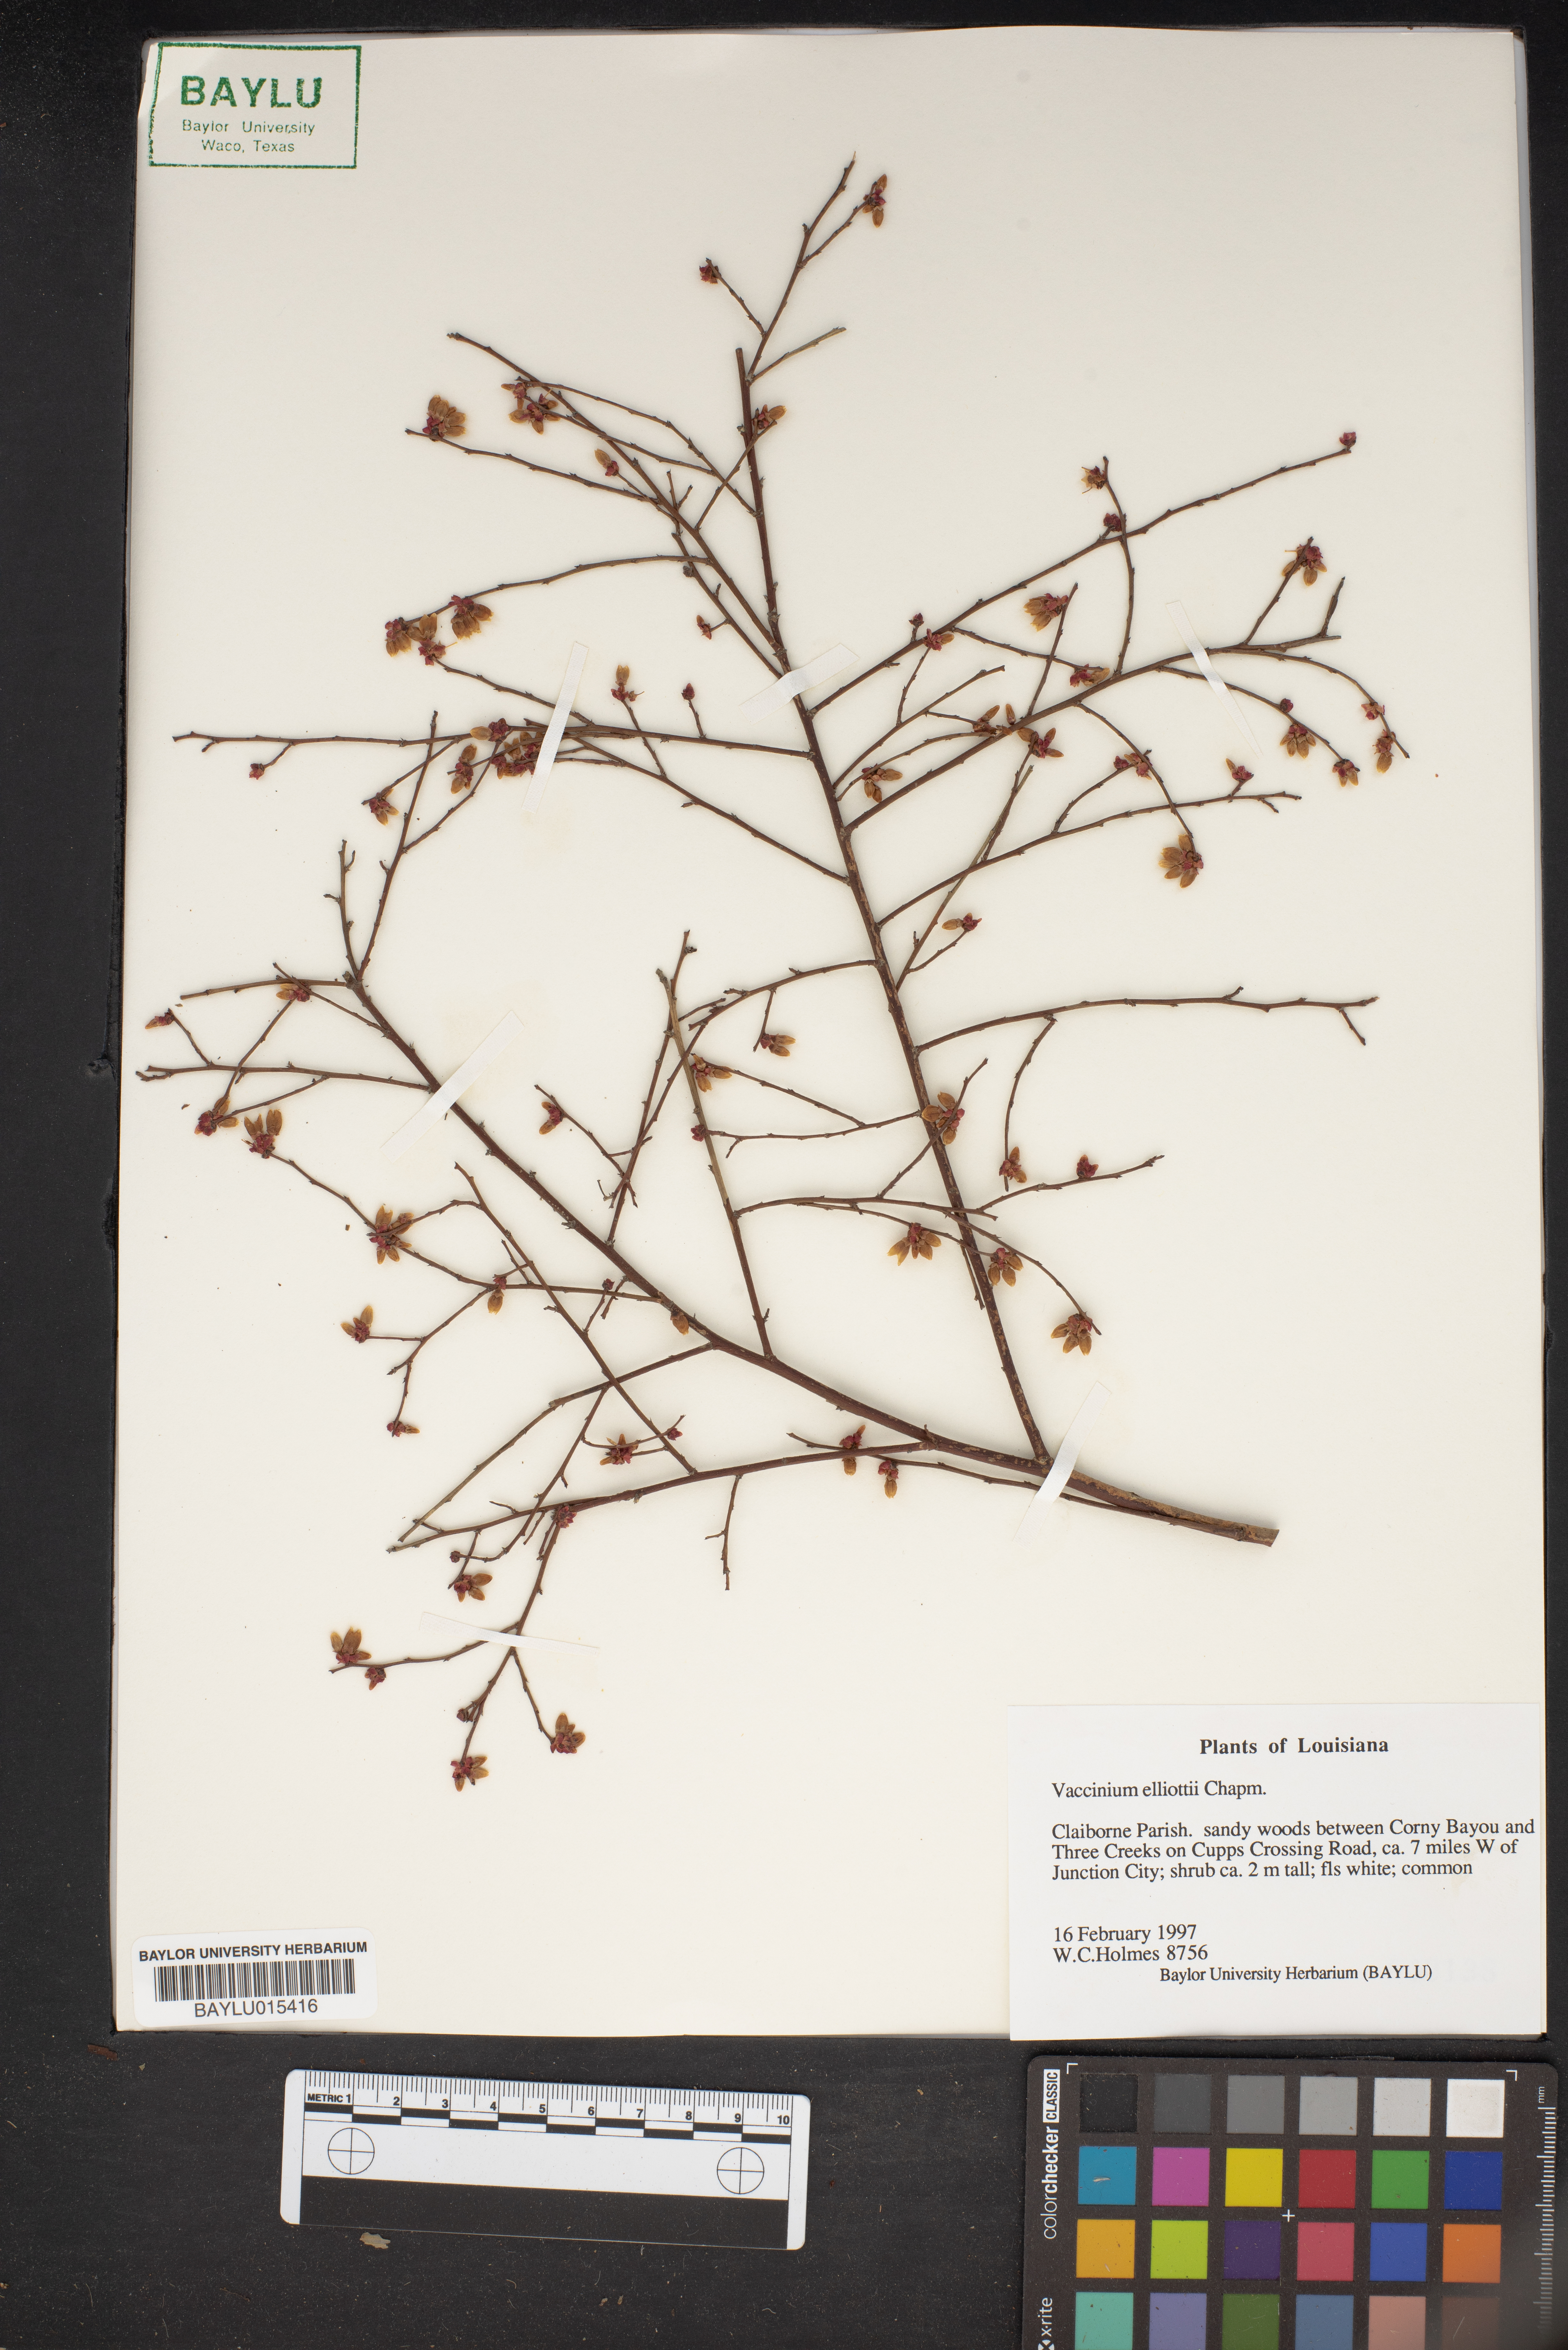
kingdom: Plantae
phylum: Tracheophyta
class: Magnoliopsida
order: Ericales
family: Ericaceae
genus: Vaccinium
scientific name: Vaccinium corymbosum
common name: Blueberry
